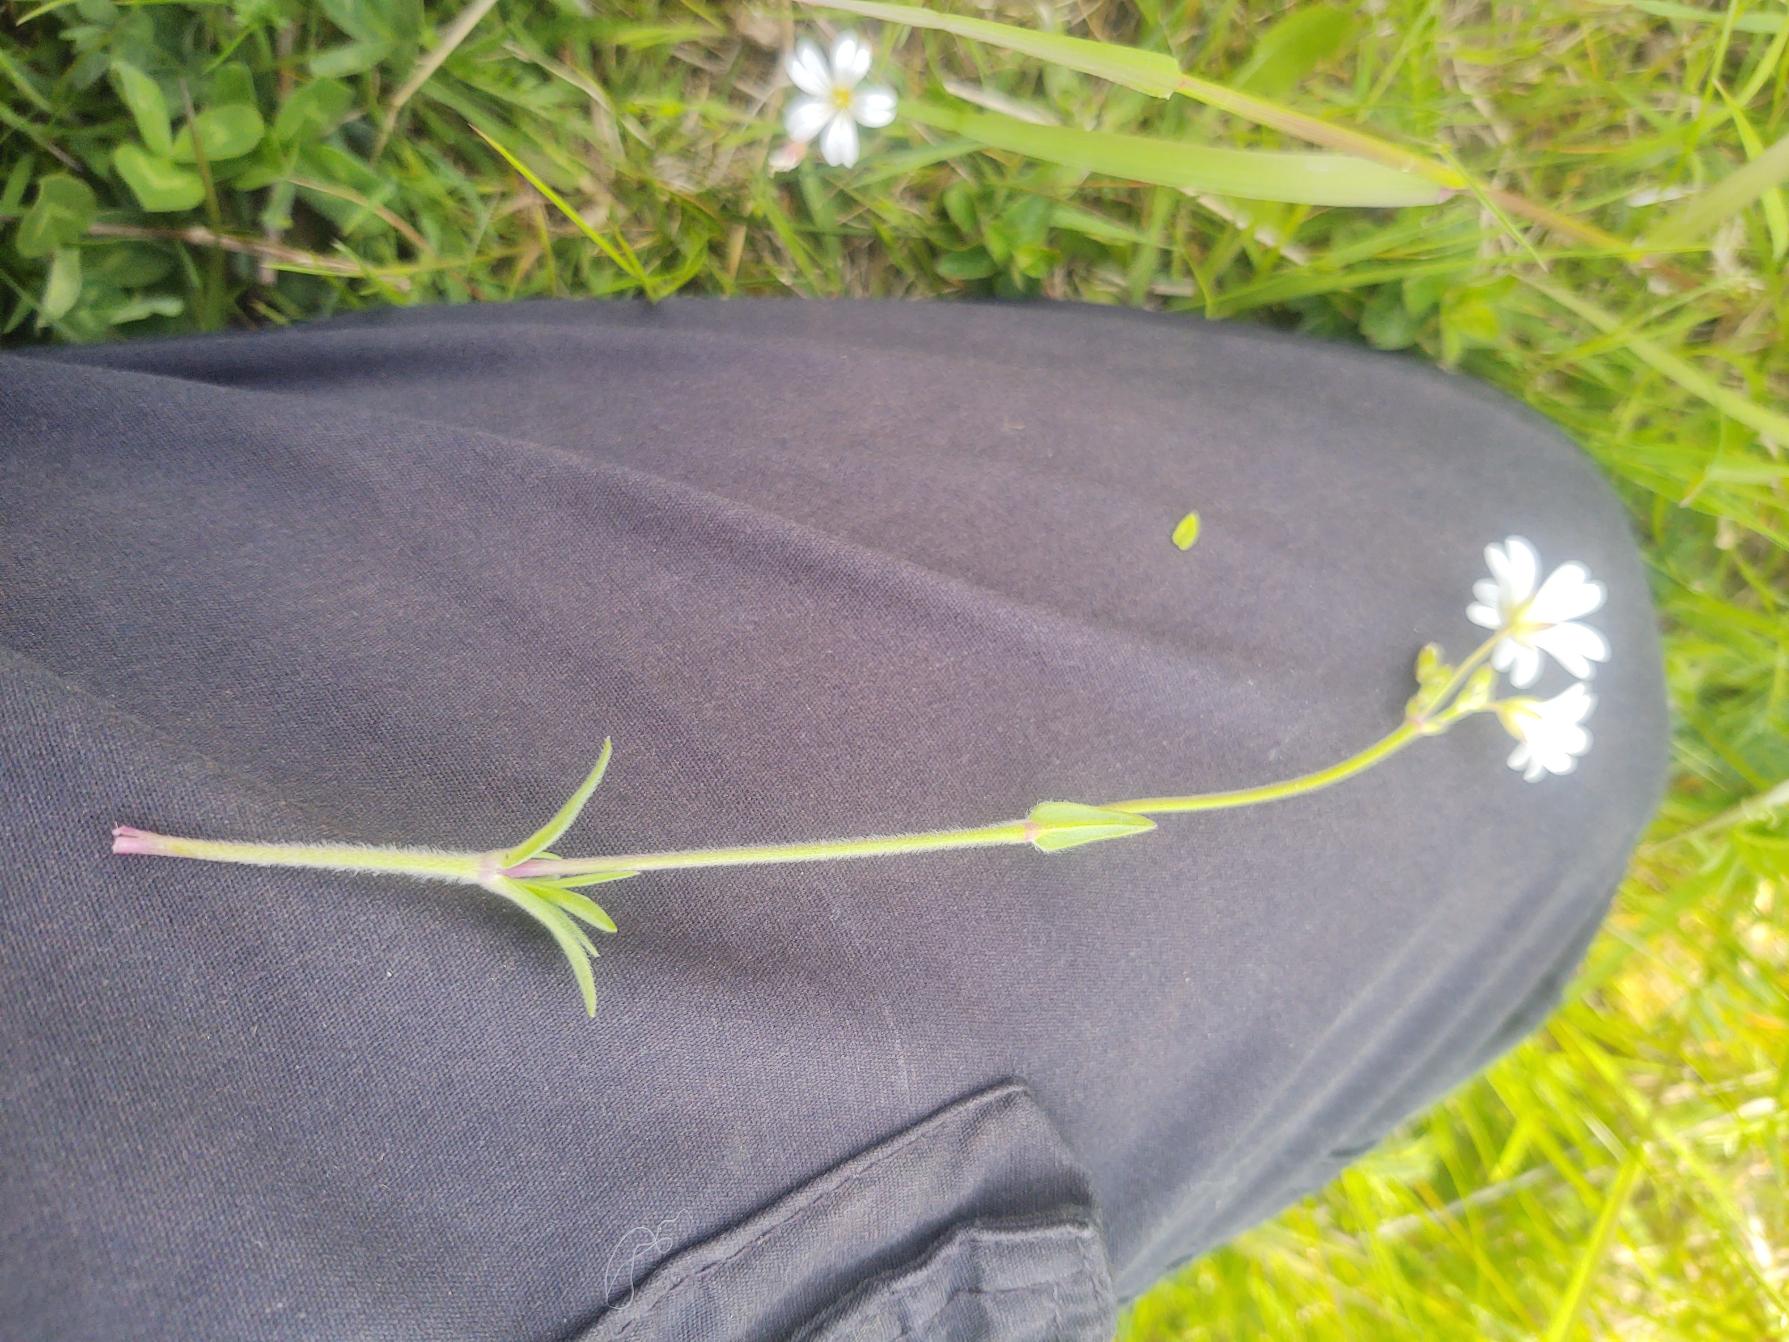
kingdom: Plantae
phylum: Tracheophyta
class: Magnoliopsida
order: Caryophyllales
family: Caryophyllaceae
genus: Cerastium
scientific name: Cerastium arvense
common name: Storblomstret hønsetarm
